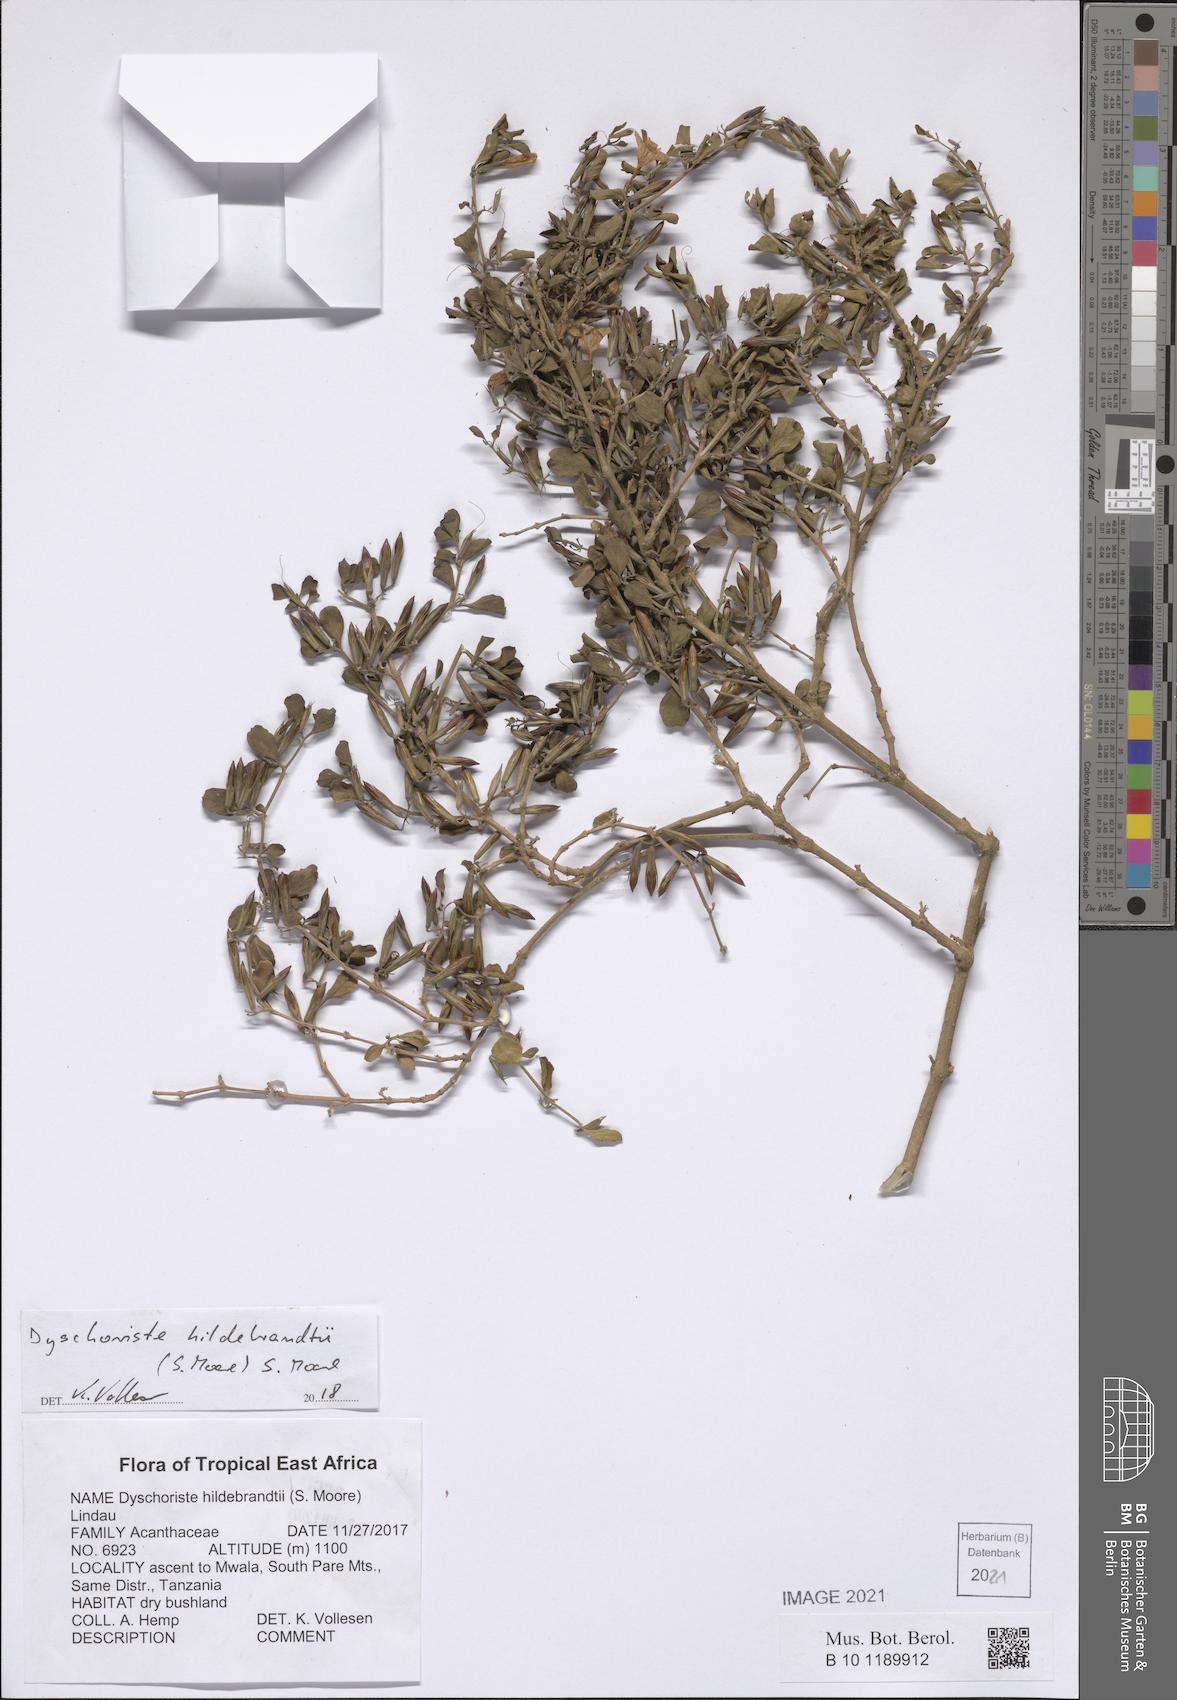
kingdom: Plantae
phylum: Tracheophyta
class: Magnoliopsida
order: Lamiales
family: Acanthaceae
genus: Dyschoriste
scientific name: Dyschoriste hildebrandtii
